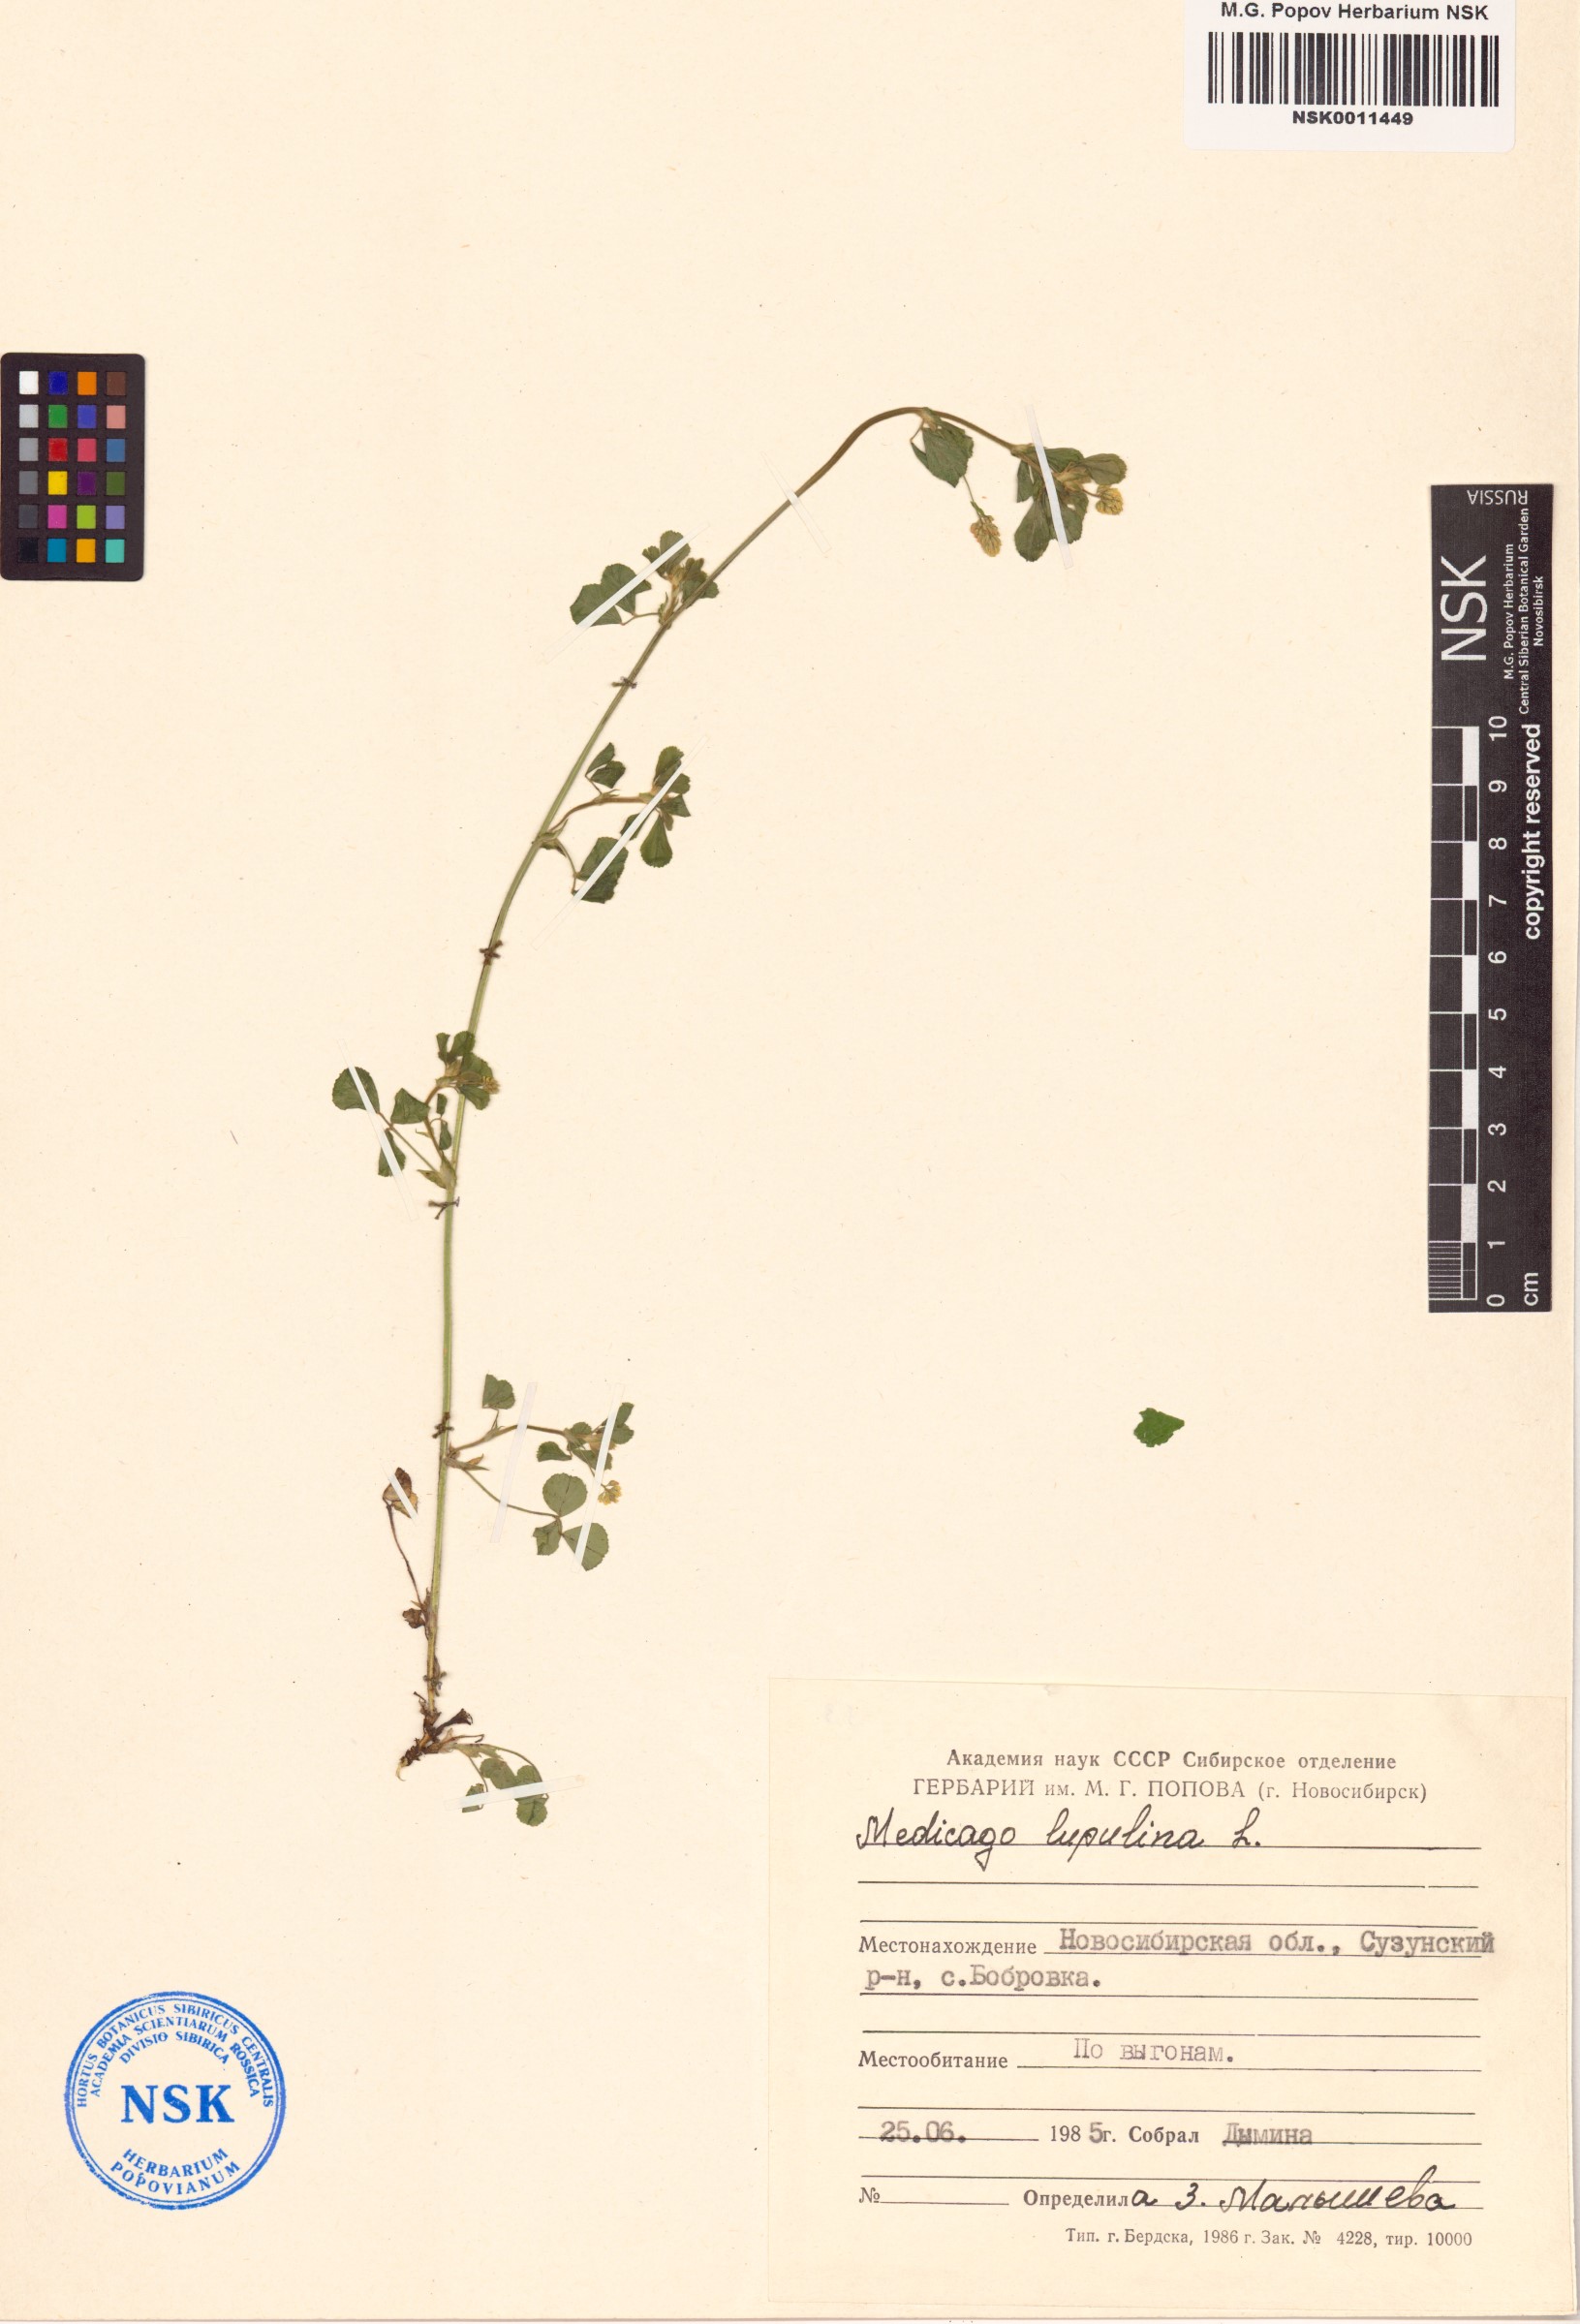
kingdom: Plantae
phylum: Tracheophyta
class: Magnoliopsida
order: Fabales
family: Fabaceae
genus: Medicago
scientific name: Medicago lupulina
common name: Black medick
